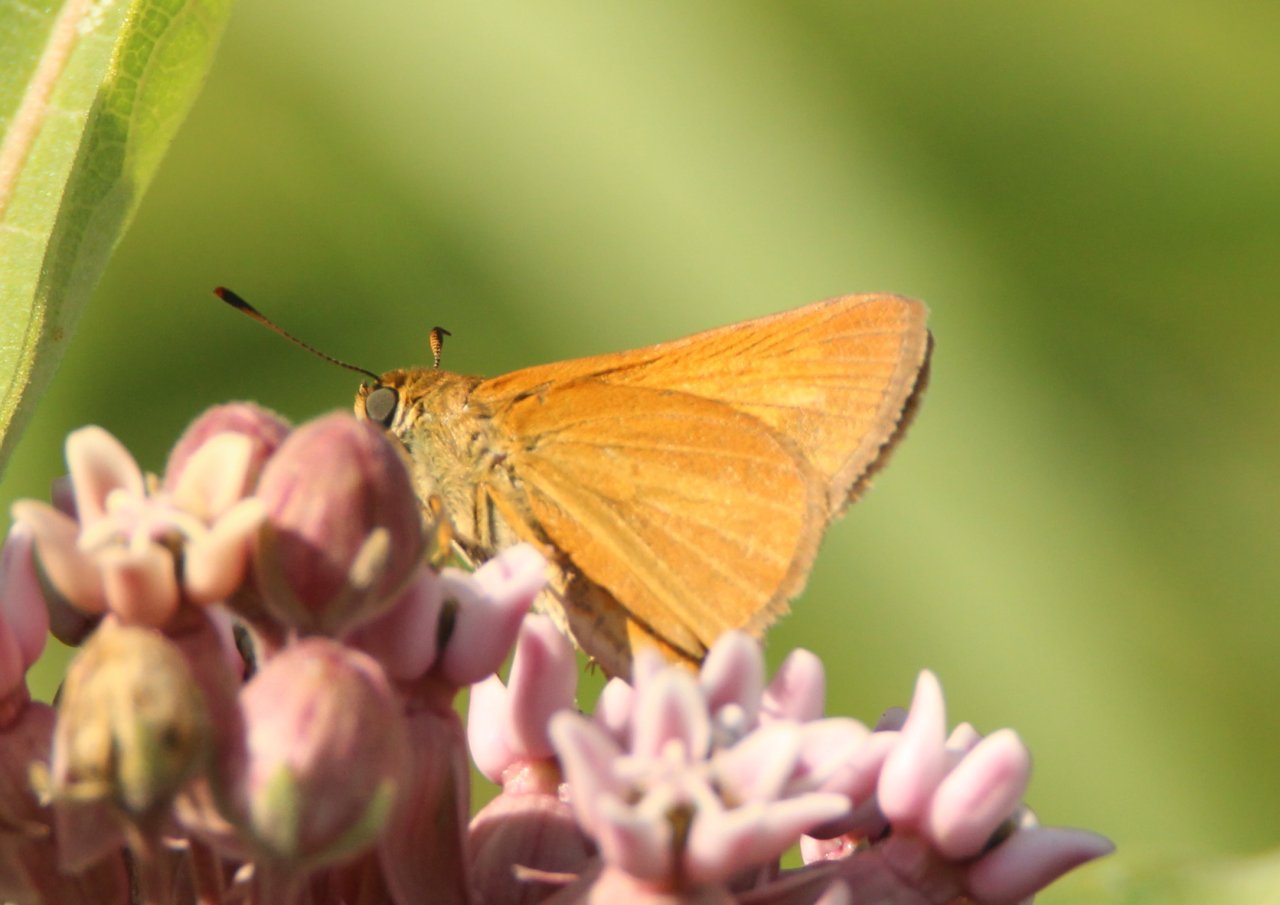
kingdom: Animalia
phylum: Arthropoda
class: Insecta
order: Lepidoptera
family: Hesperiidae
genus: Euphyes
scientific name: Euphyes dion
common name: Dion Skipper
